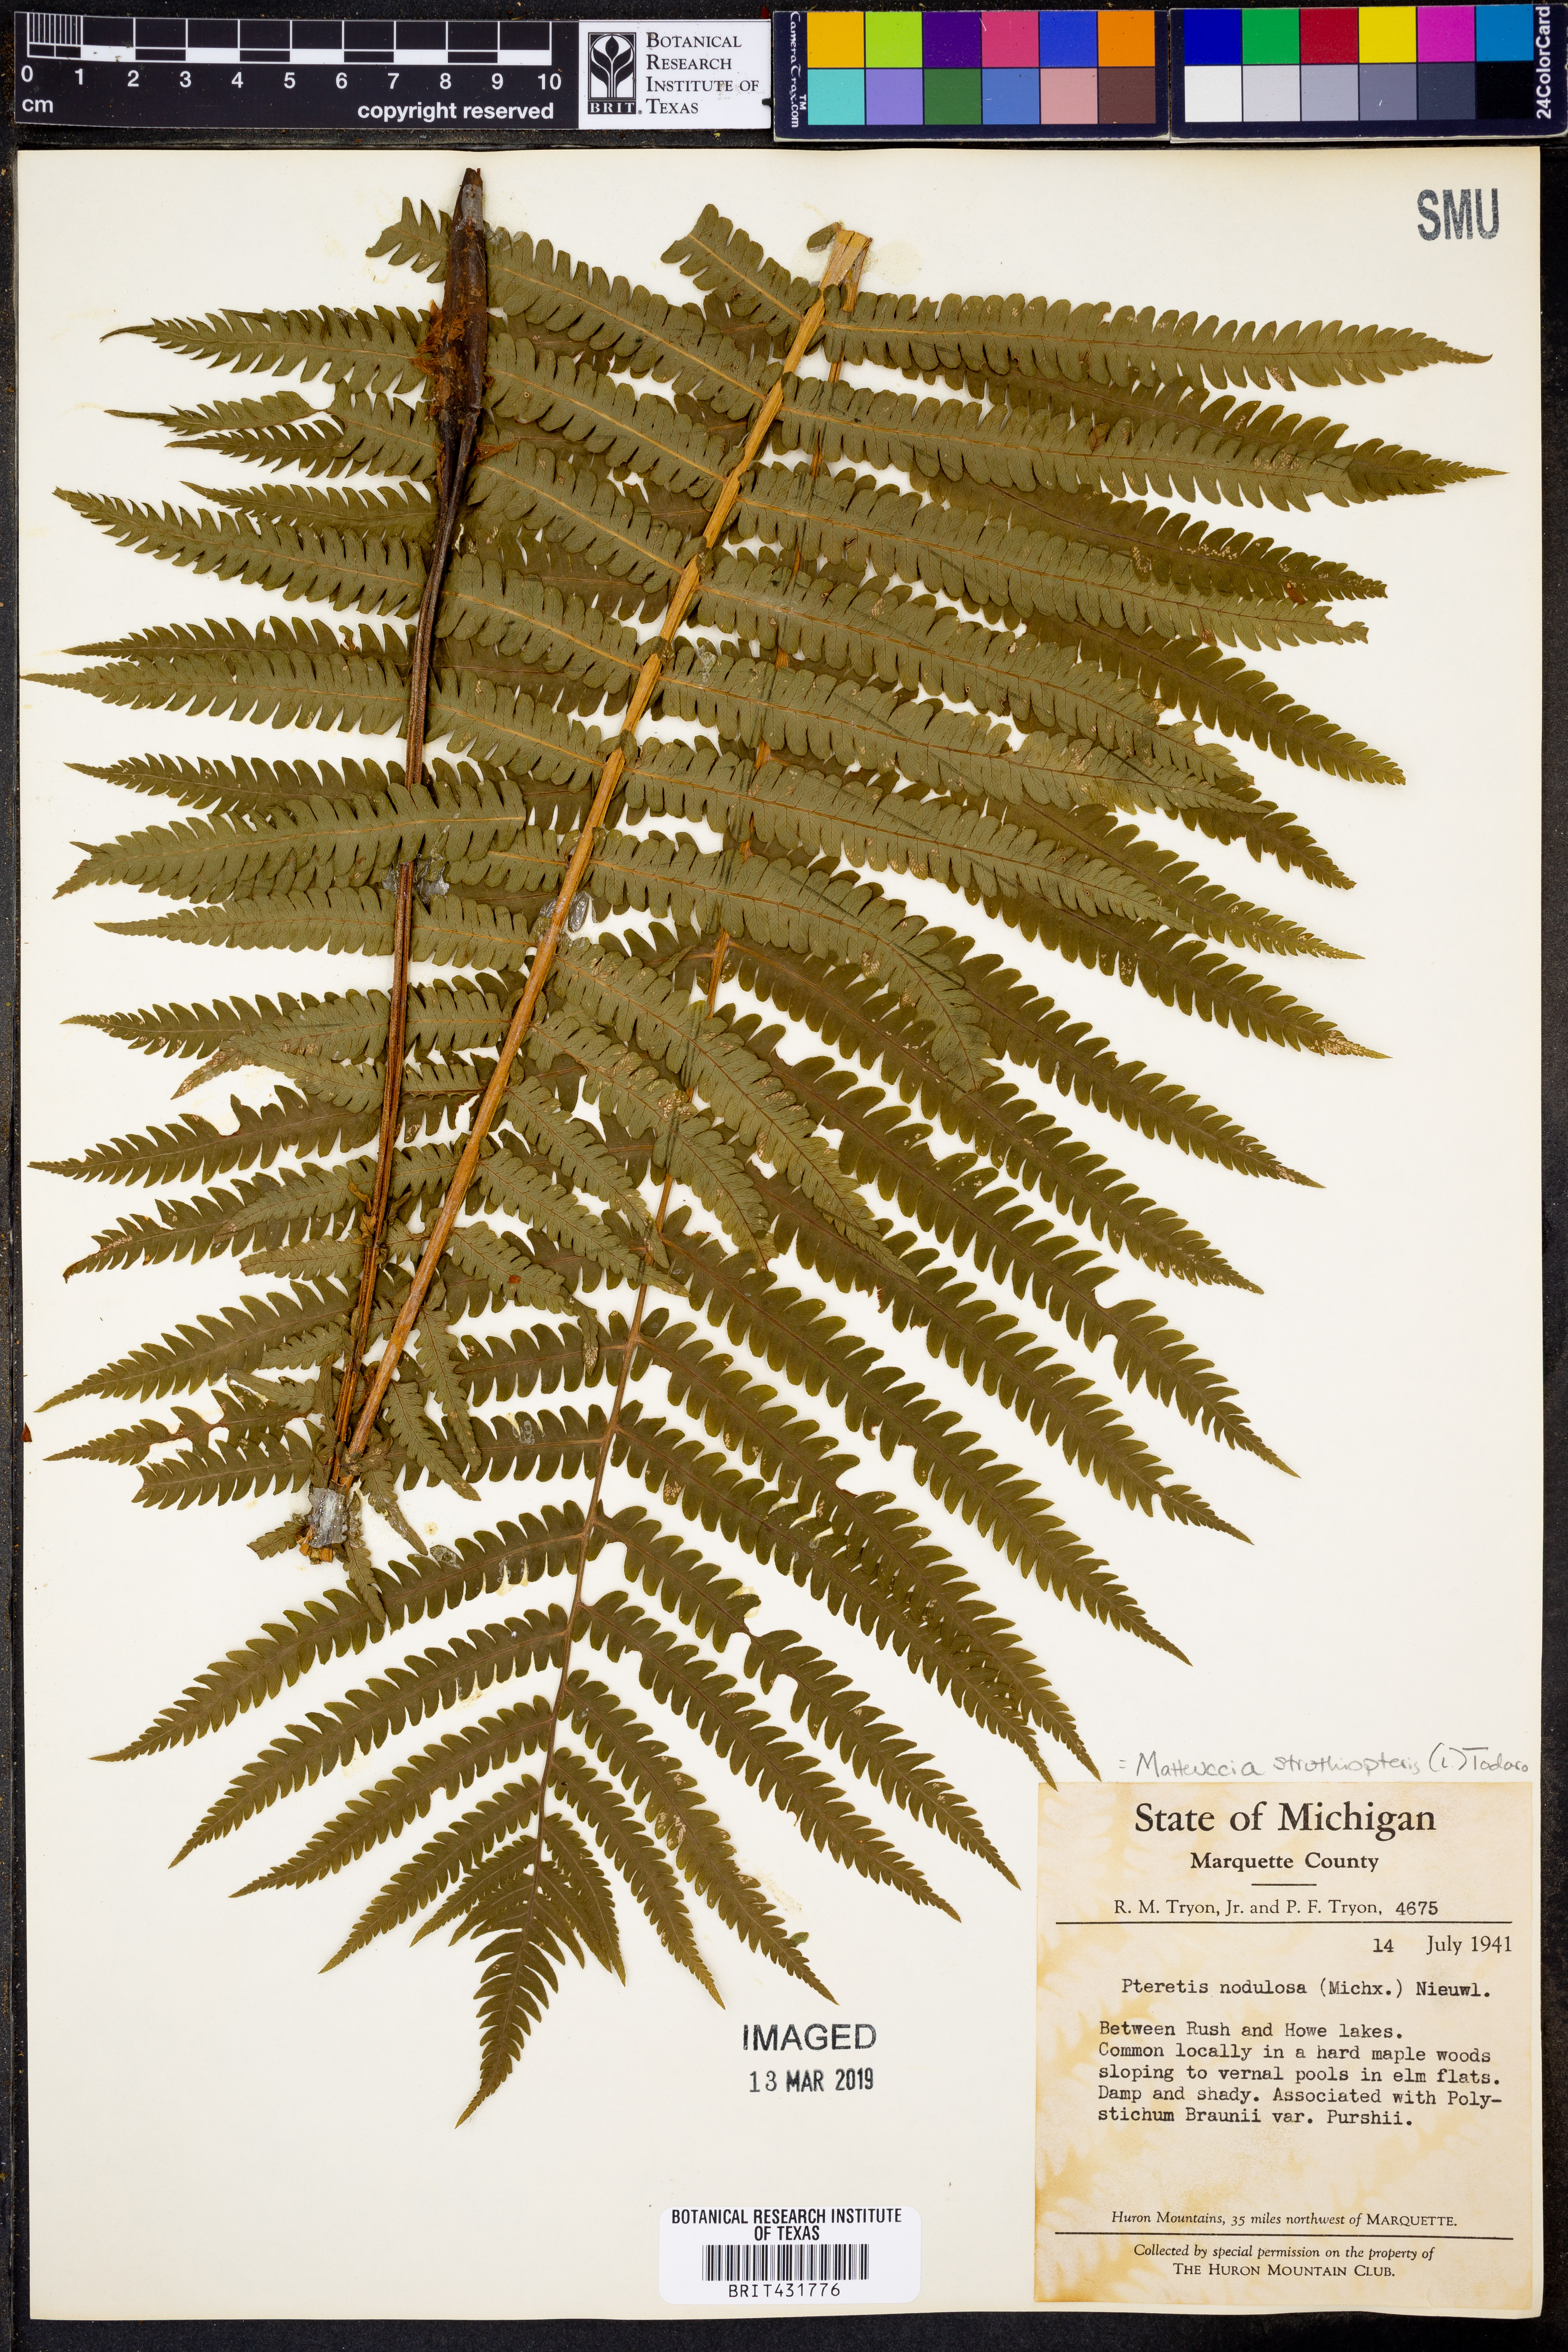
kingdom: Plantae
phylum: Tracheophyta
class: Polypodiopsida
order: Polypodiales
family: Onocleaceae
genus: Matteuccia
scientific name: Matteuccia struthiopteris
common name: Ostrich fern
